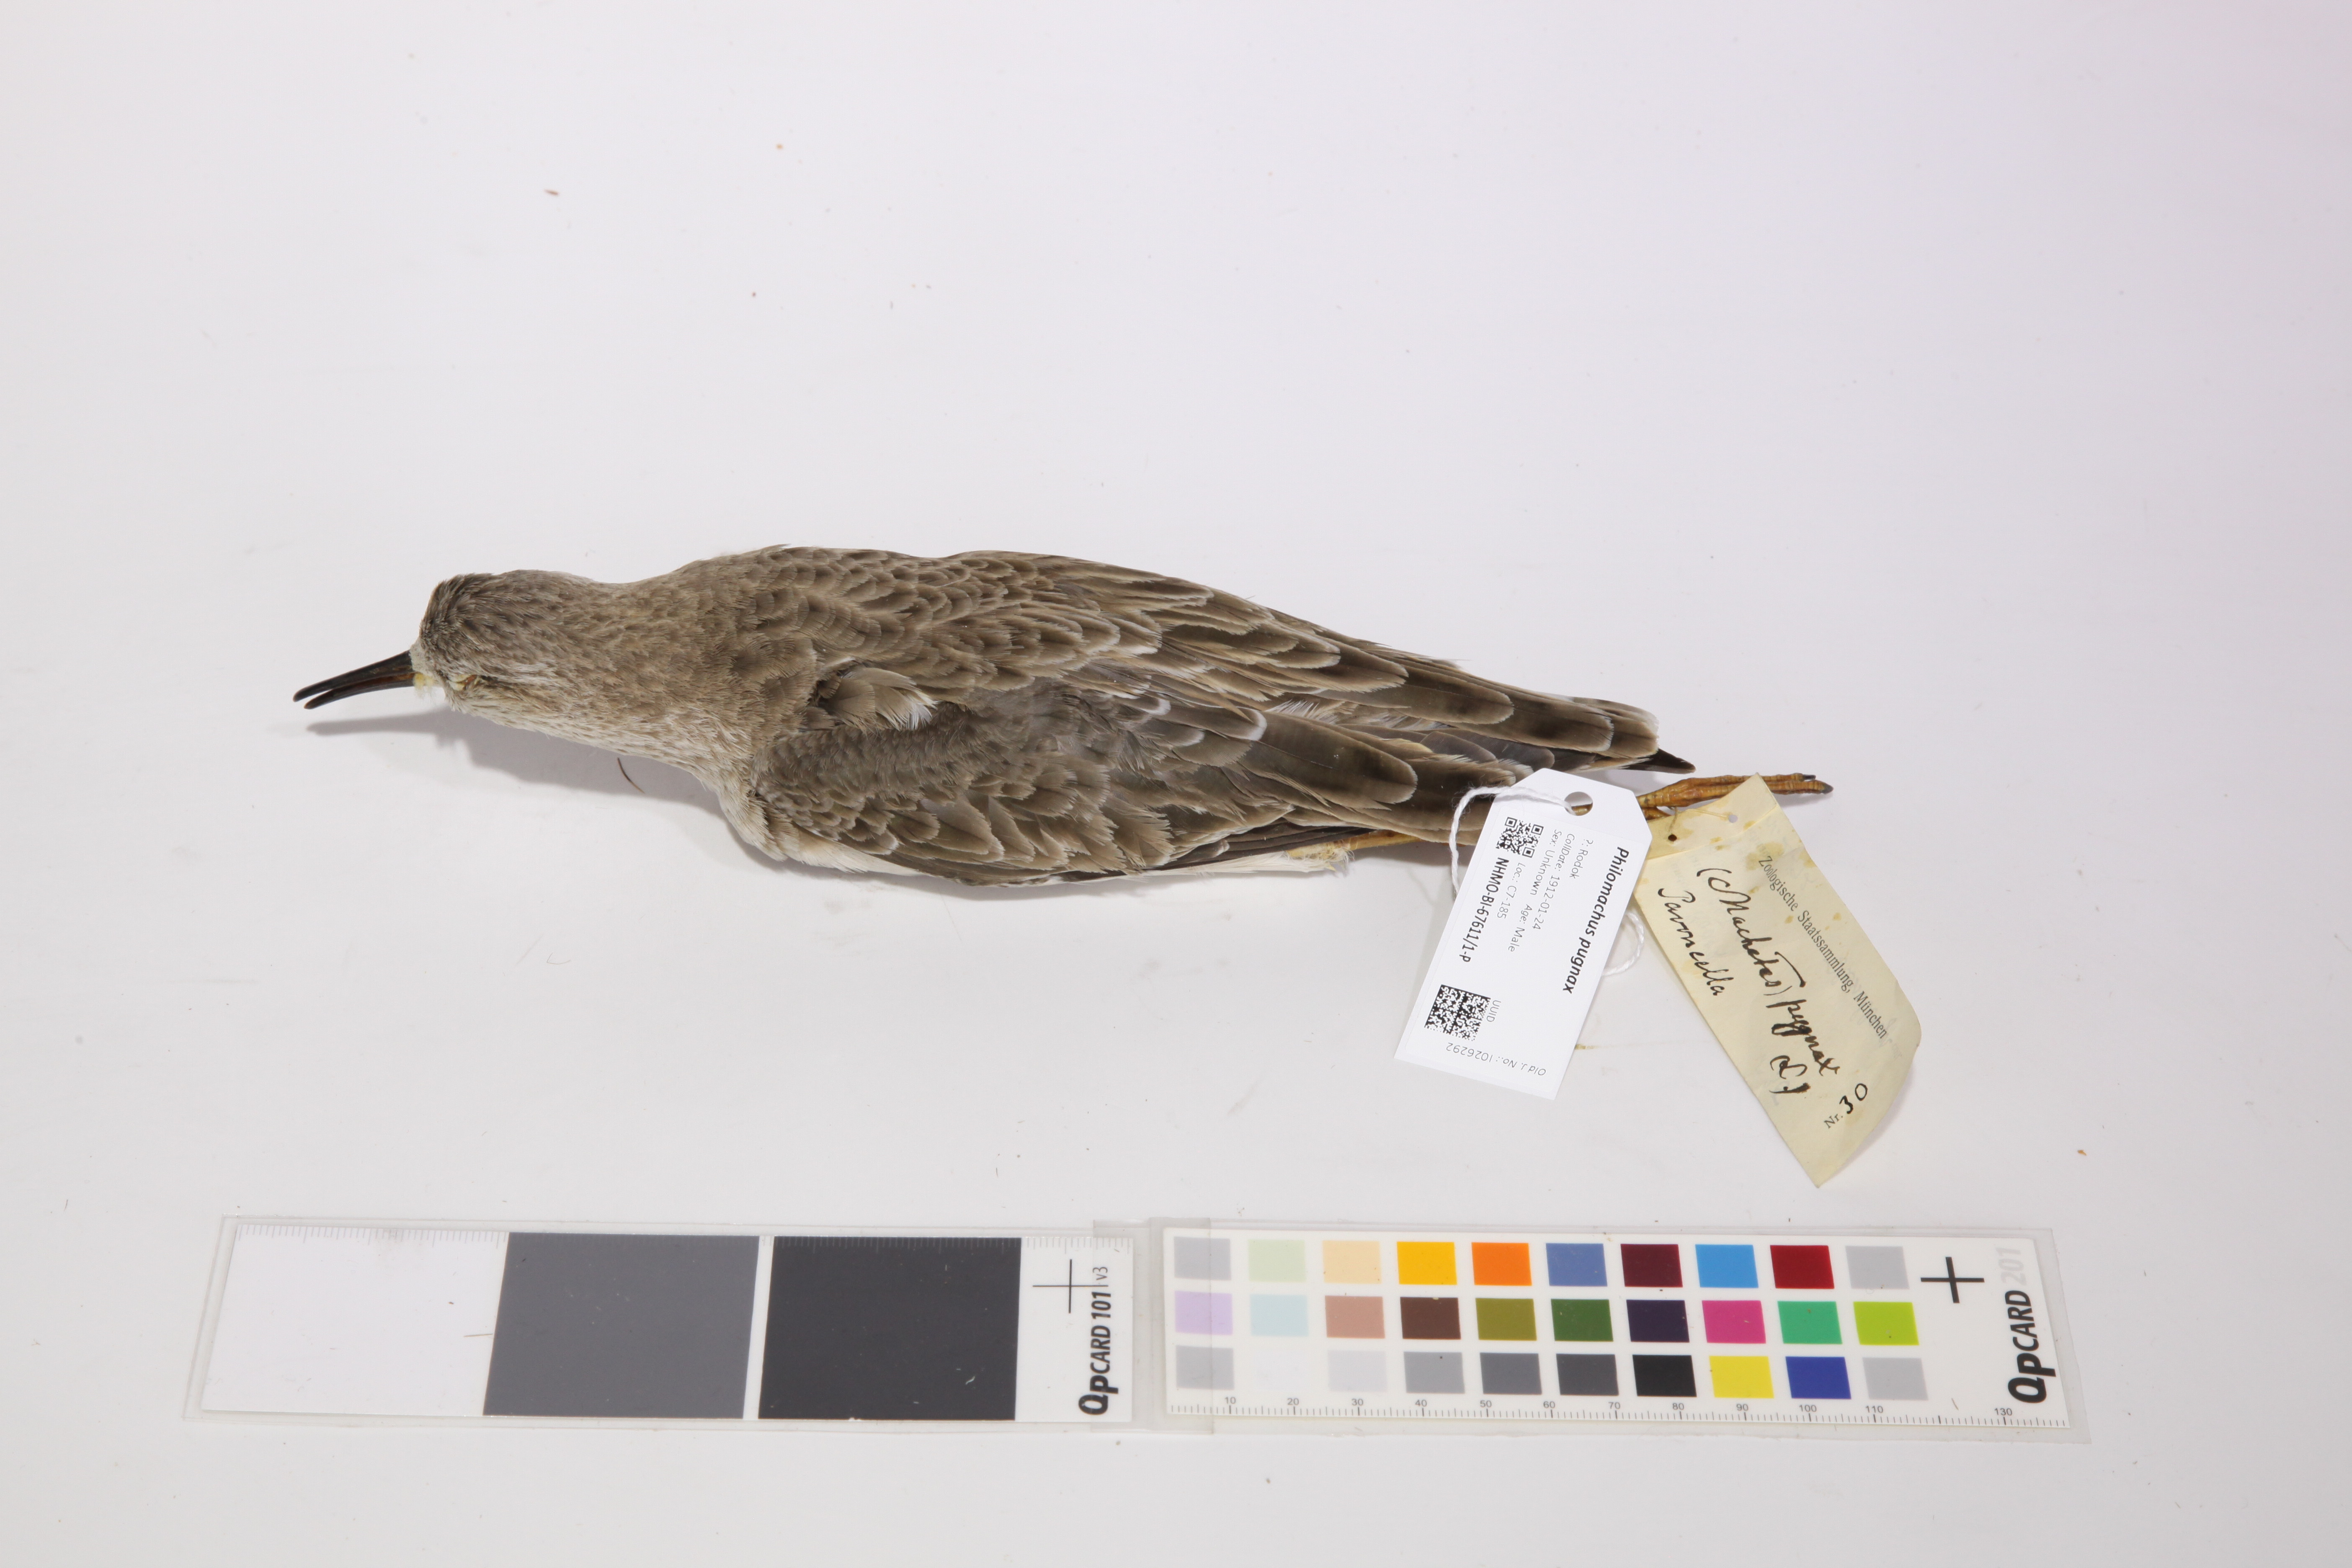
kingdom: Animalia
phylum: Chordata
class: Aves
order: Charadriiformes
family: Scolopacidae
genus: Calidris
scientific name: Calidris pugnax
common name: Ruff
